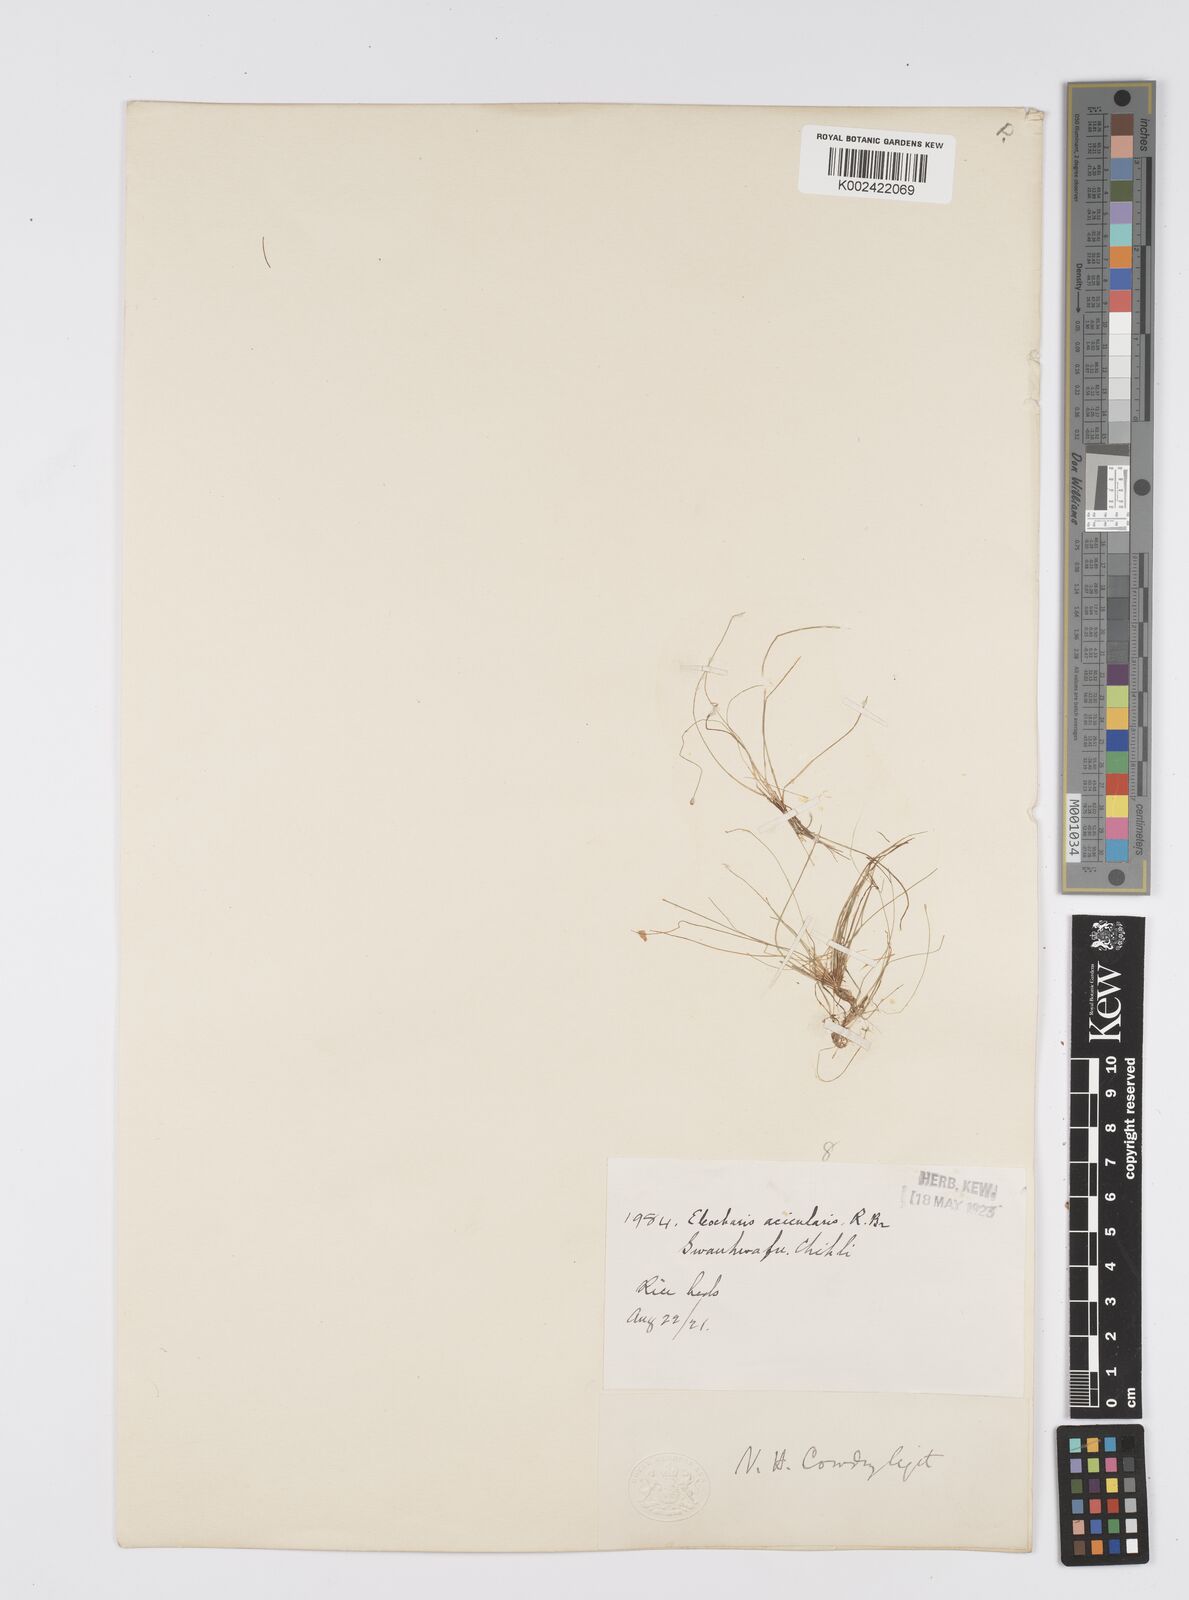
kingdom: Plantae
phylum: Tracheophyta
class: Liliopsida
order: Poales
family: Cyperaceae
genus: Eleocharis
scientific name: Eleocharis acicularis
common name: Needle spike-rush
